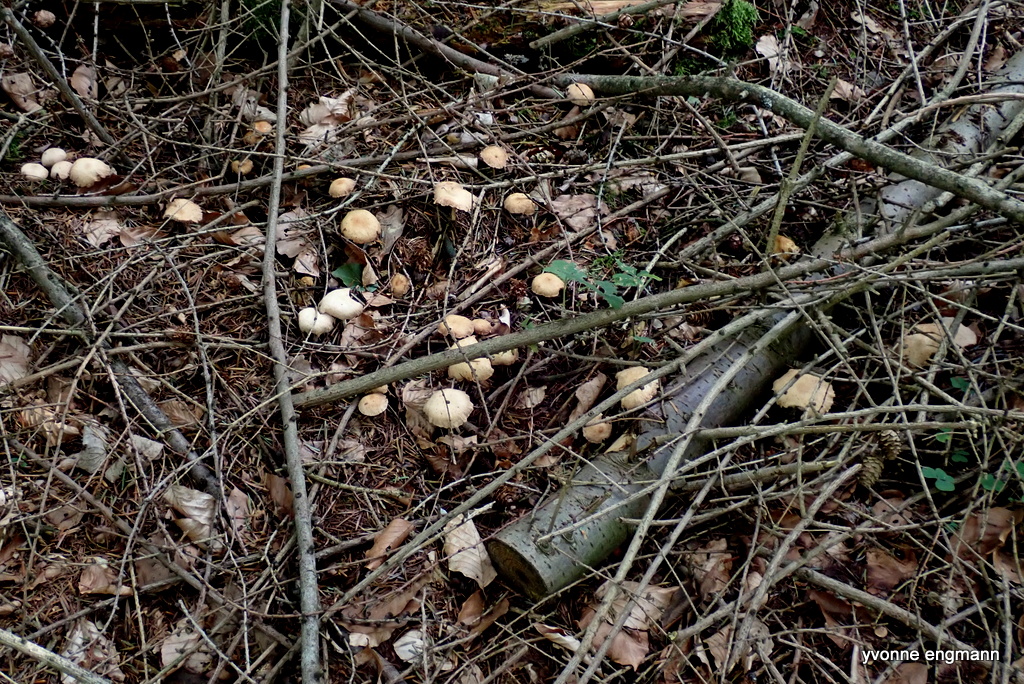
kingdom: Fungi
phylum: Basidiomycota
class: Agaricomycetes
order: Agaricales
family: Omphalotaceae
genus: Collybiopsis
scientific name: Collybiopsis peronata
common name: bestøvlet fladhat
